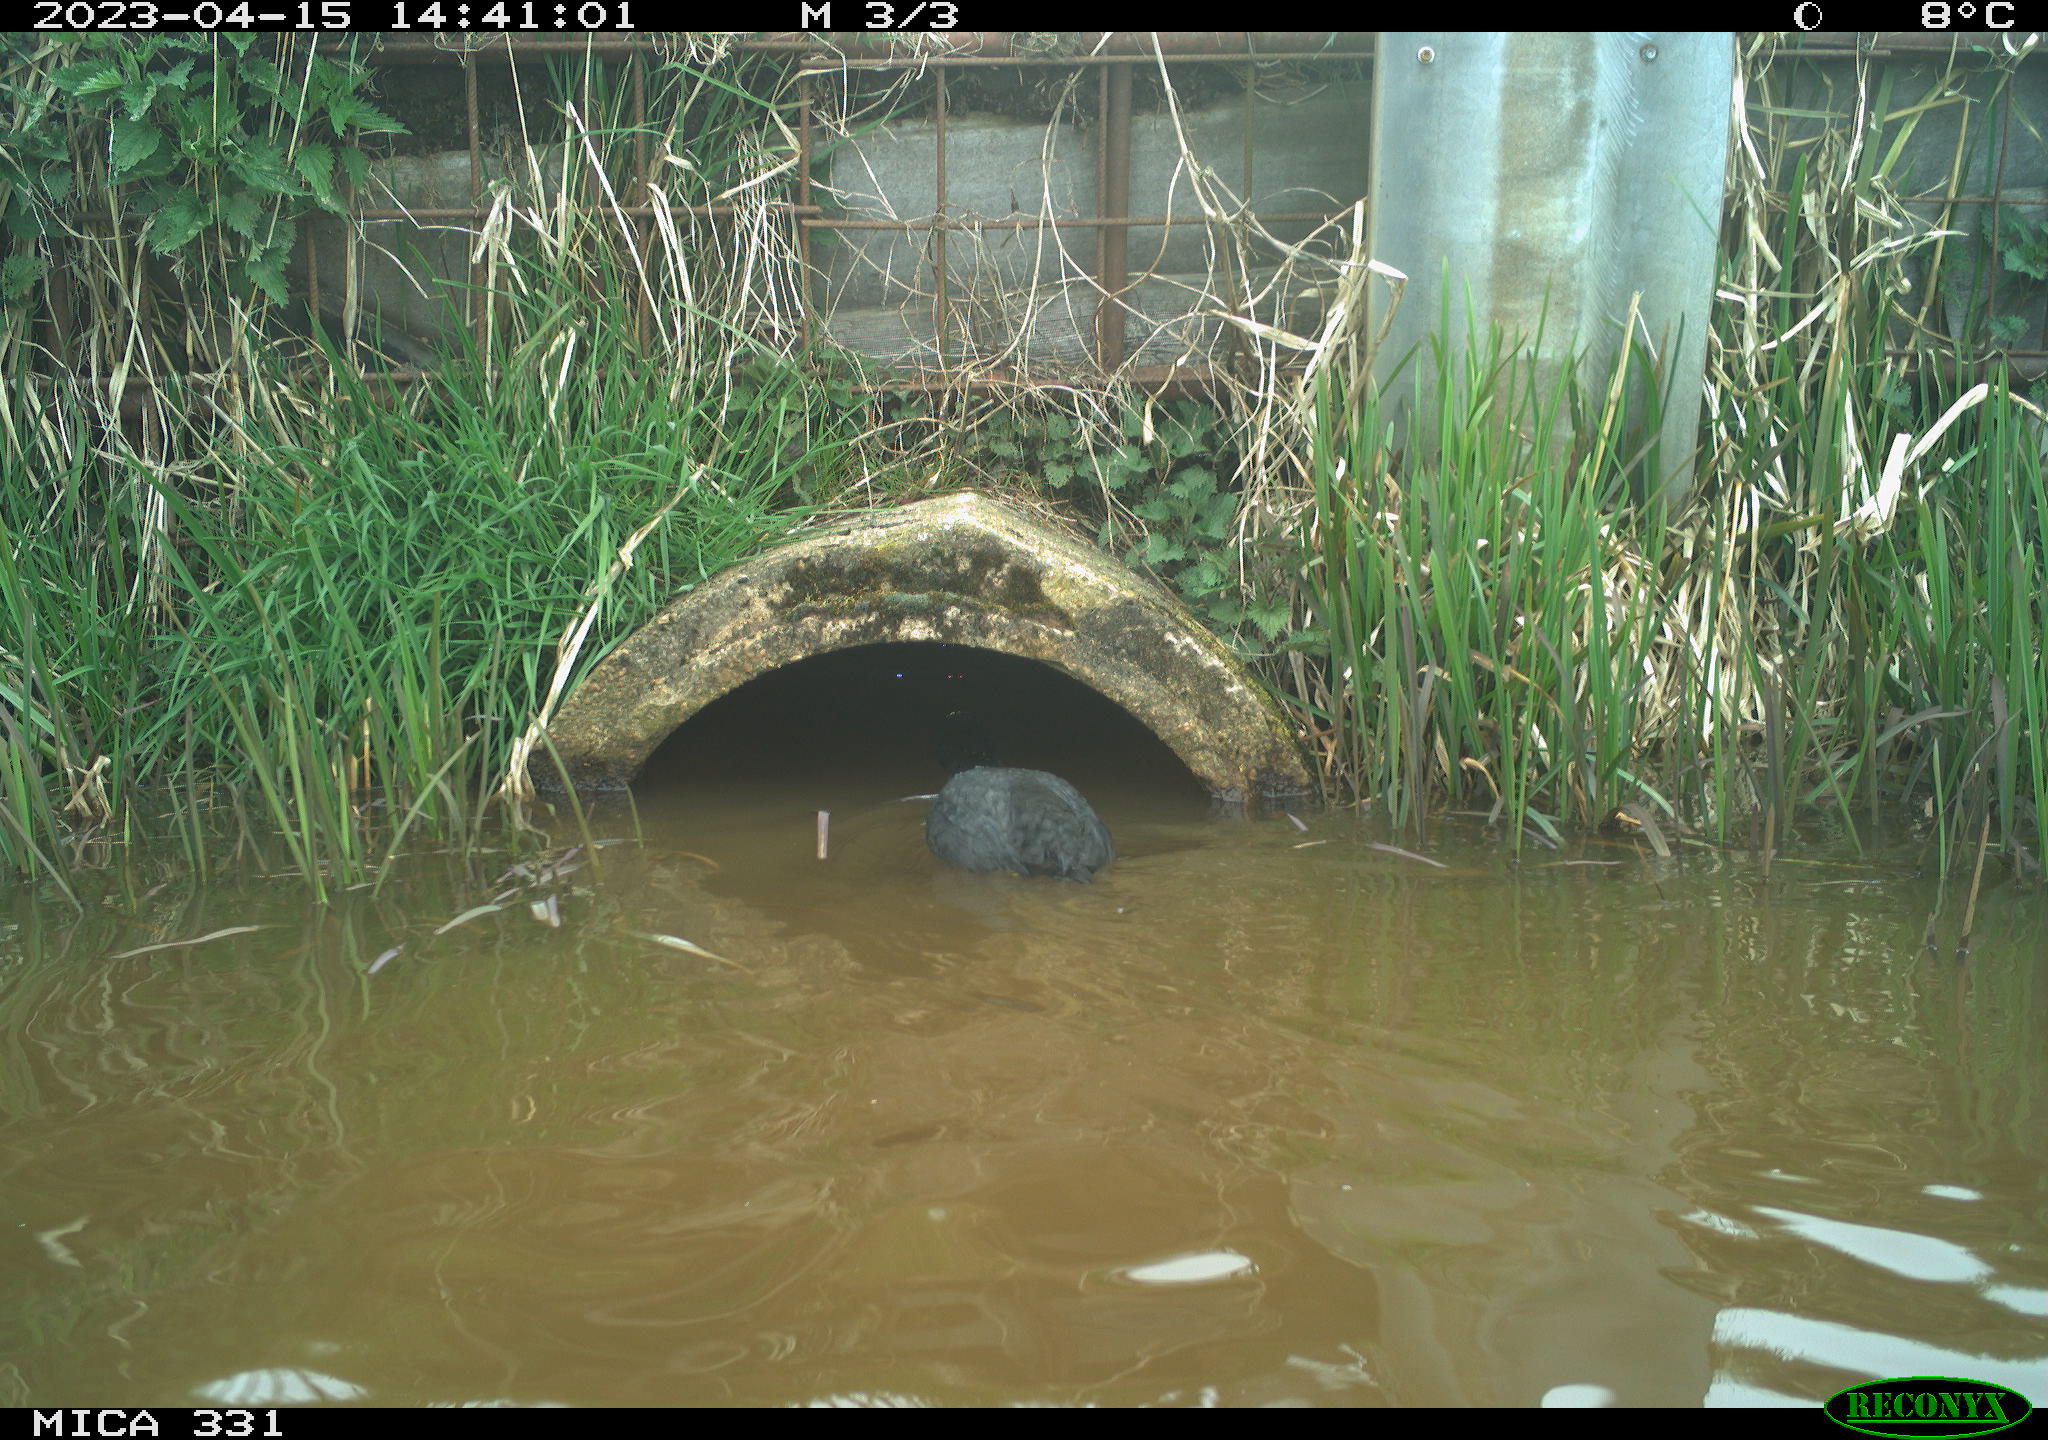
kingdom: Animalia
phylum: Chordata
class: Aves
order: Gruiformes
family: Rallidae
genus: Fulica
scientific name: Fulica atra
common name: Eurasian coot
